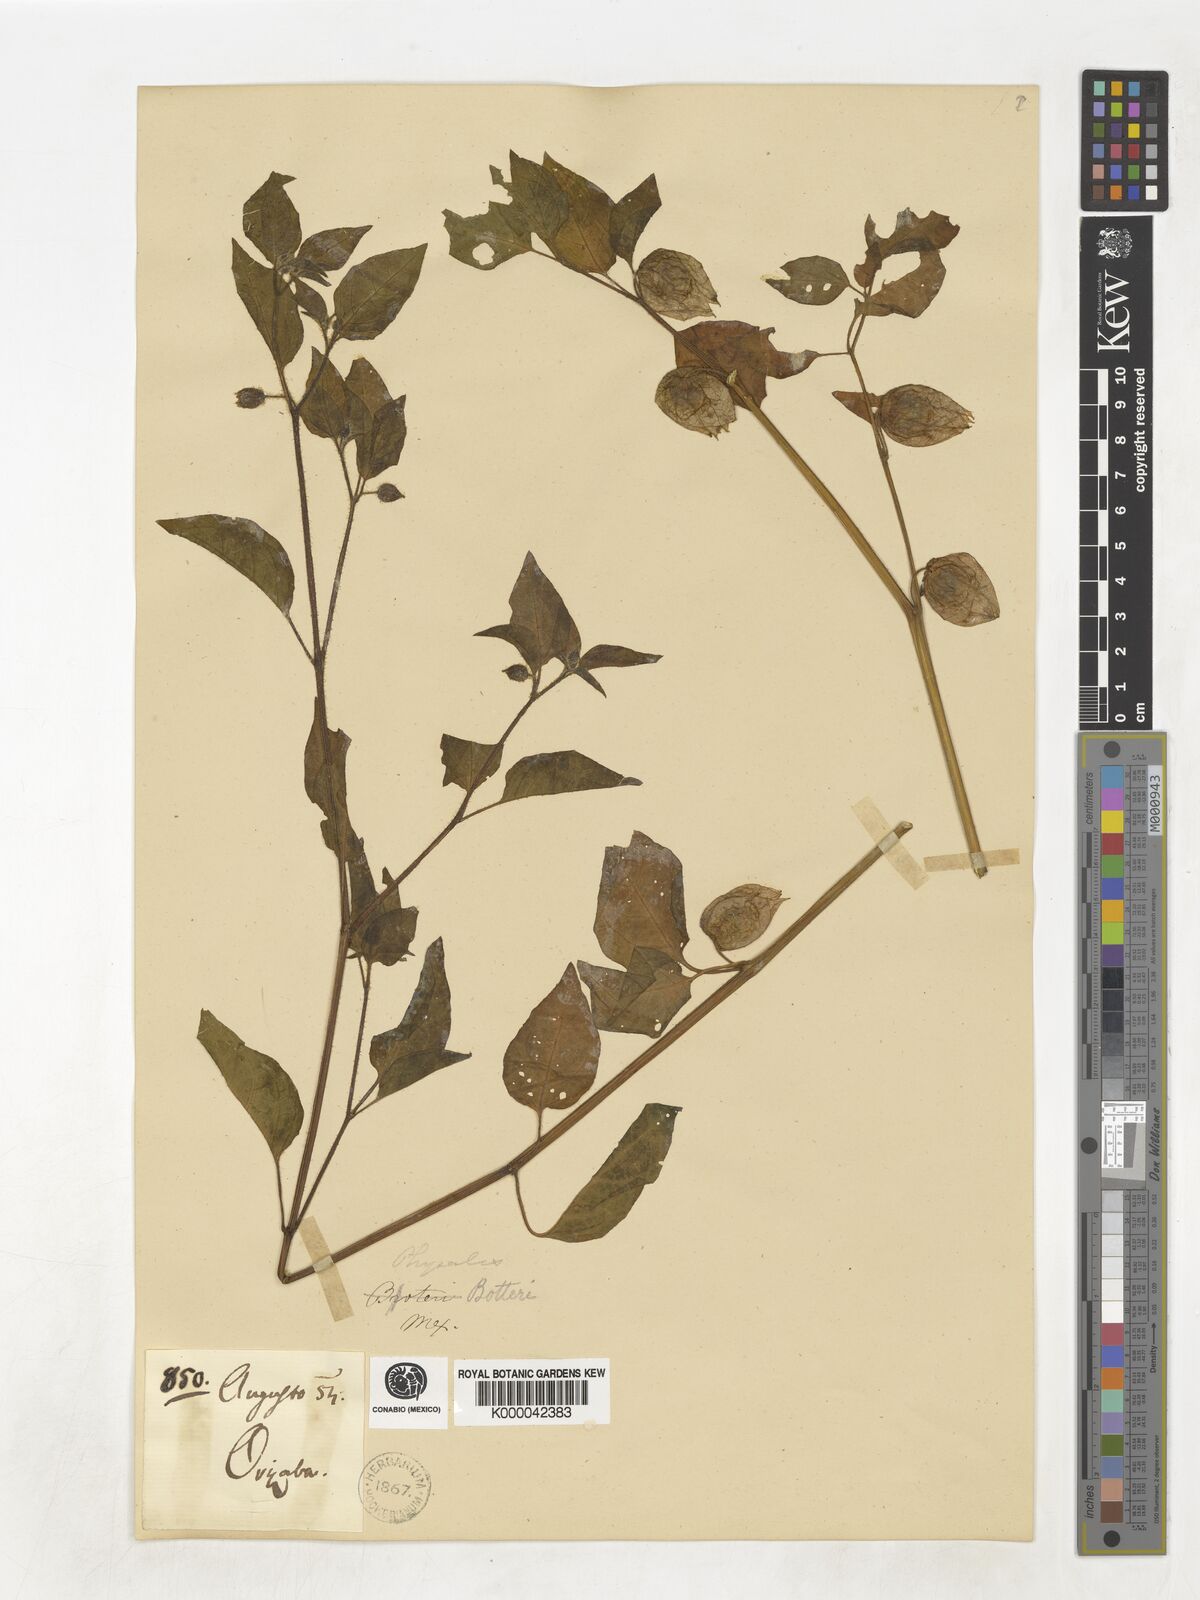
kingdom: Plantae
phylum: Tracheophyta
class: Magnoliopsida
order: Solanales
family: Solanaceae
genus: Physalis
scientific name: Physalis pubescens
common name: Downy ground-cherry
